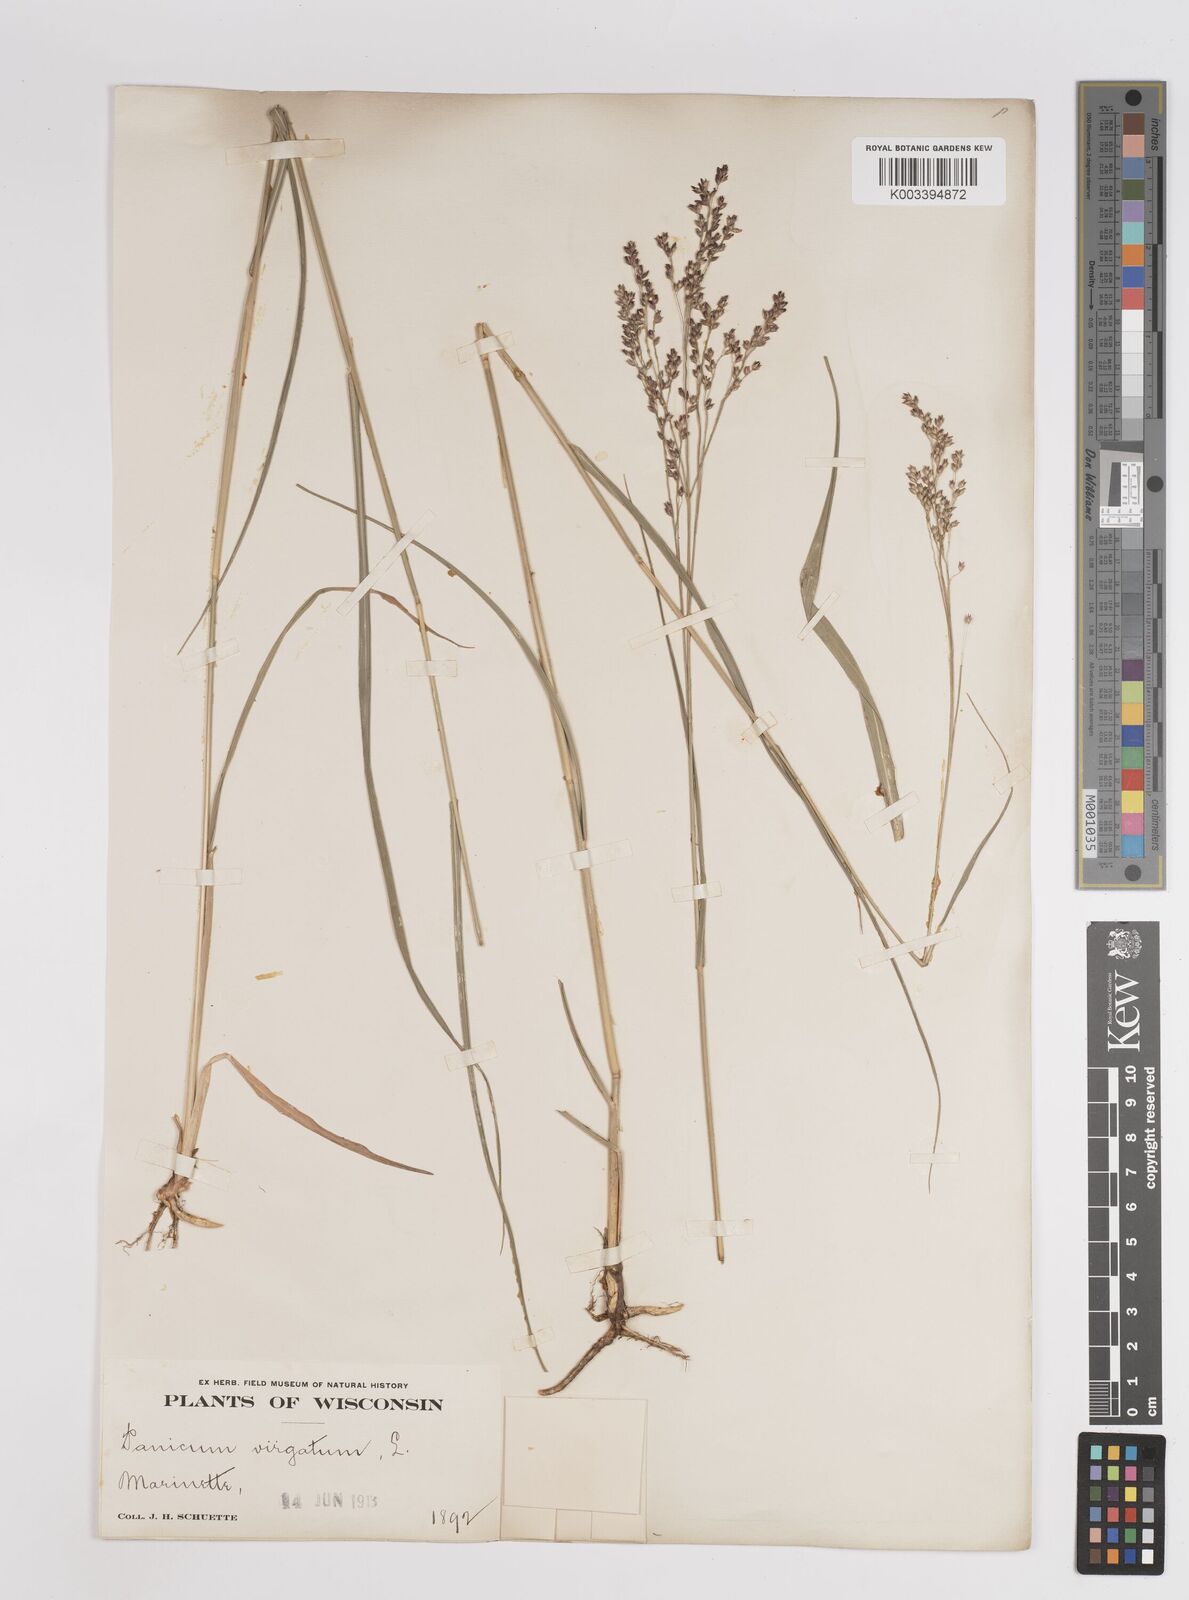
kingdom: Plantae
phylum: Tracheophyta
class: Liliopsida
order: Poales
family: Poaceae
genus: Panicum
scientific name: Panicum virgatum
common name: Switchgrass
